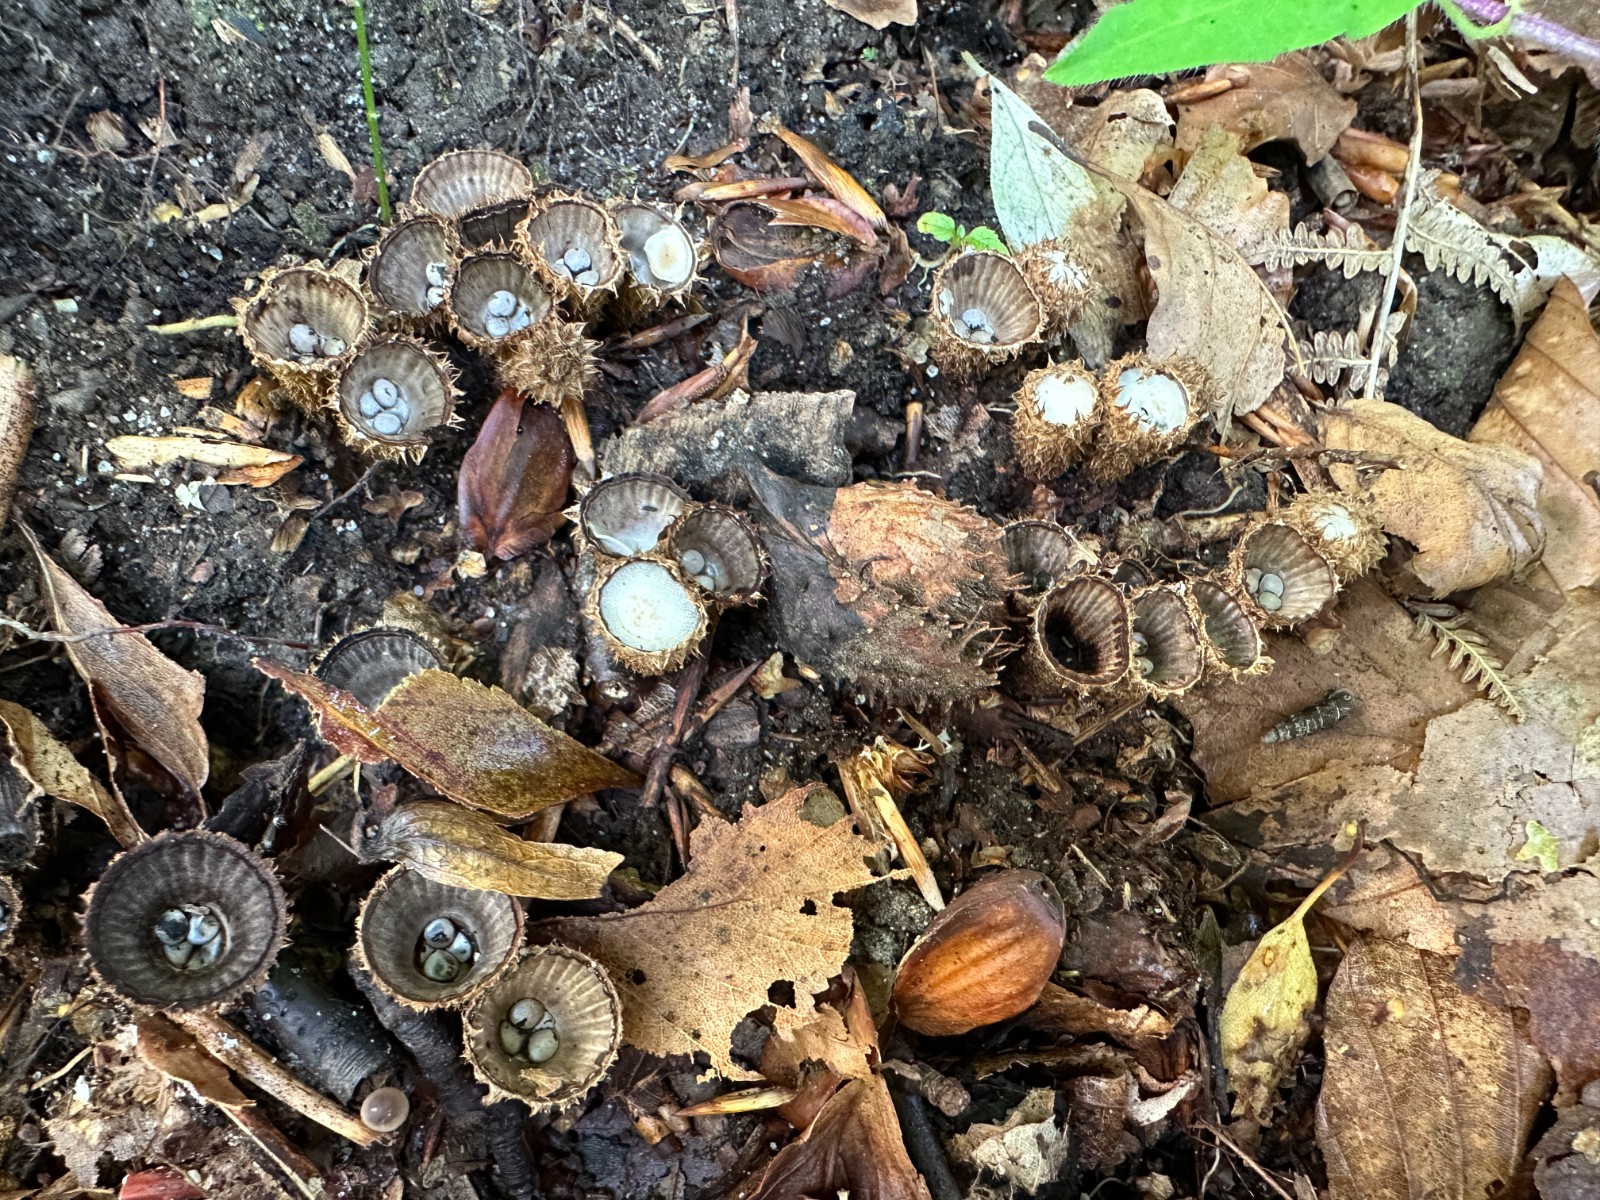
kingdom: Fungi
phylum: Basidiomycota
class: Agaricomycetes
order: Agaricales
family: Agaricaceae
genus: Cyathus
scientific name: Cyathus striatus
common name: stribet redesvamp
